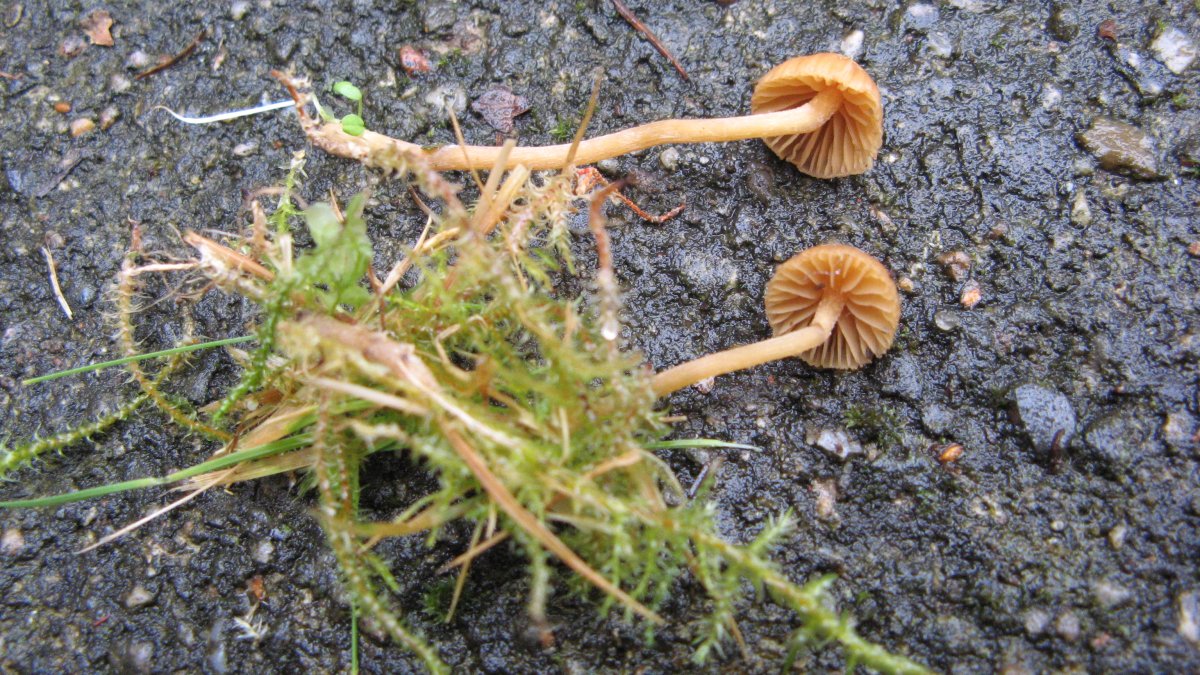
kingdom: Fungi
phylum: Basidiomycota
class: Agaricomycetes
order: Agaricales
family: Hymenogastraceae
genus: Galerina
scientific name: Galerina atkinsoniana
